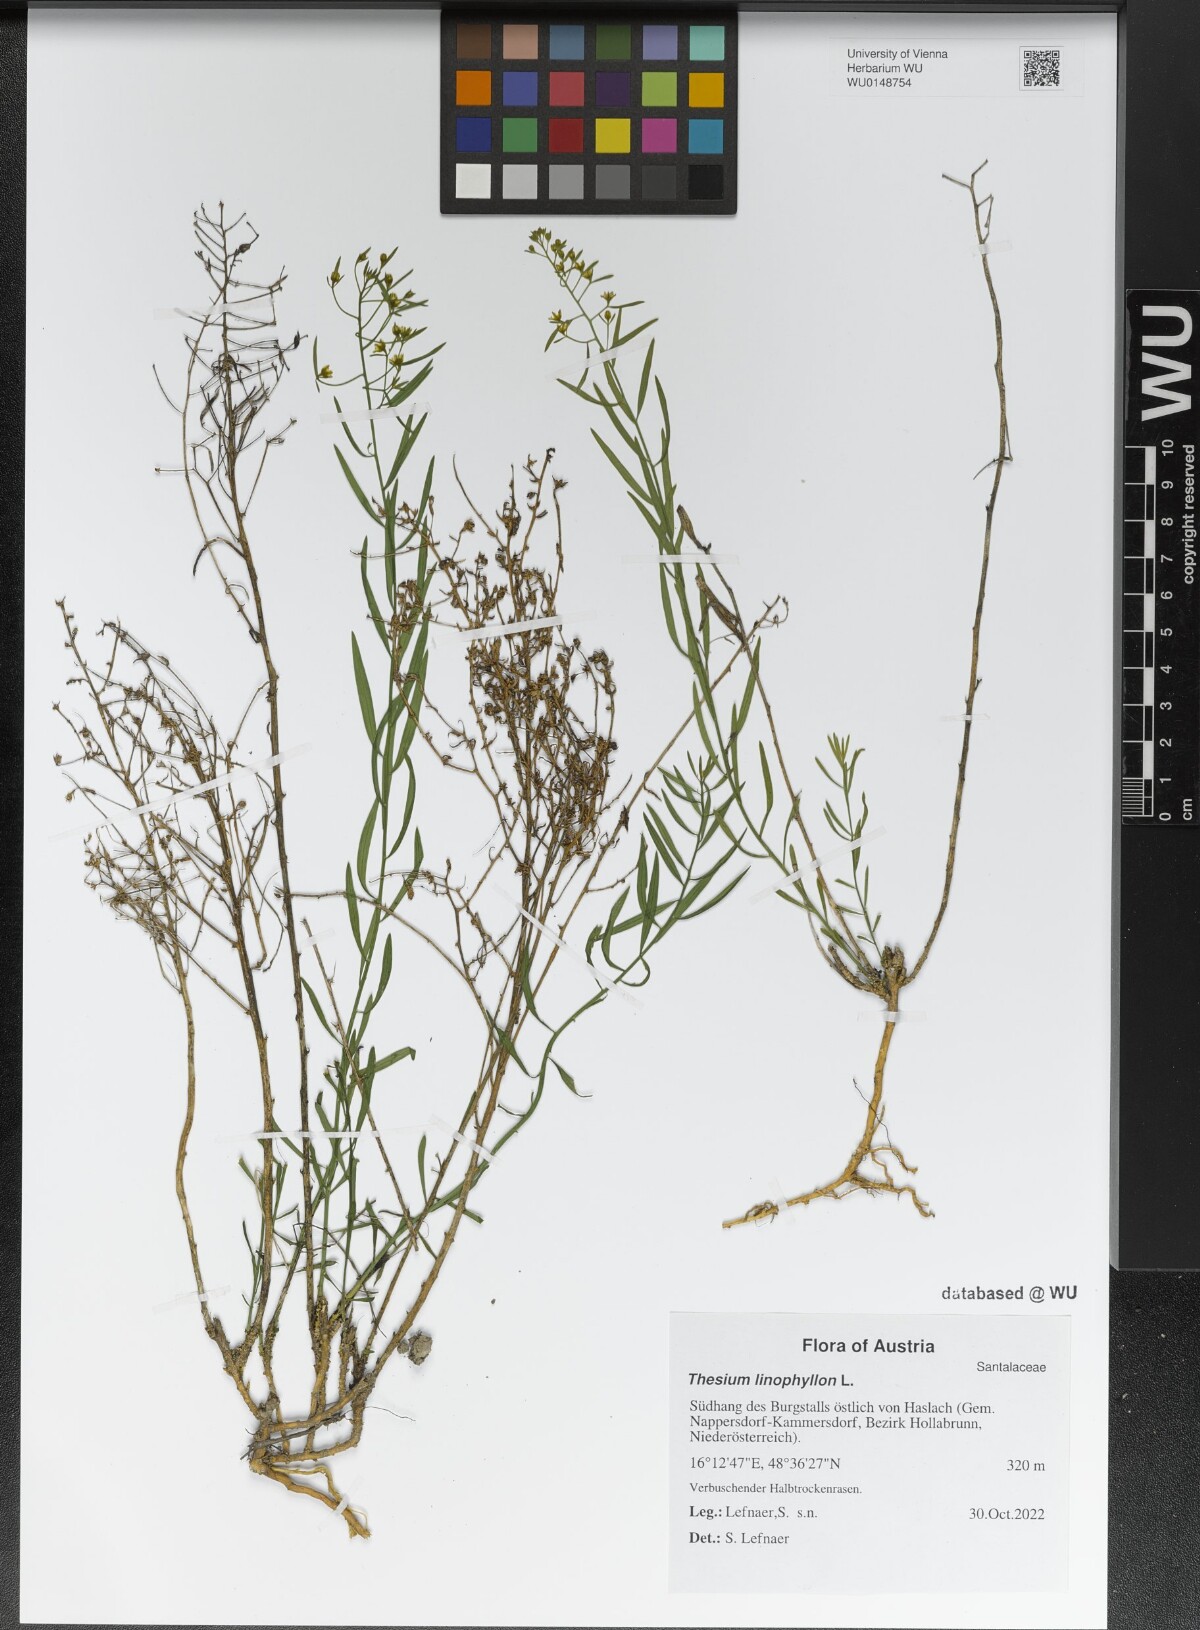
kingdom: Plantae
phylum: Tracheophyta
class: Magnoliopsida
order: Santalales
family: Thesiaceae
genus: Thesium
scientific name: Thesium linophyllon
